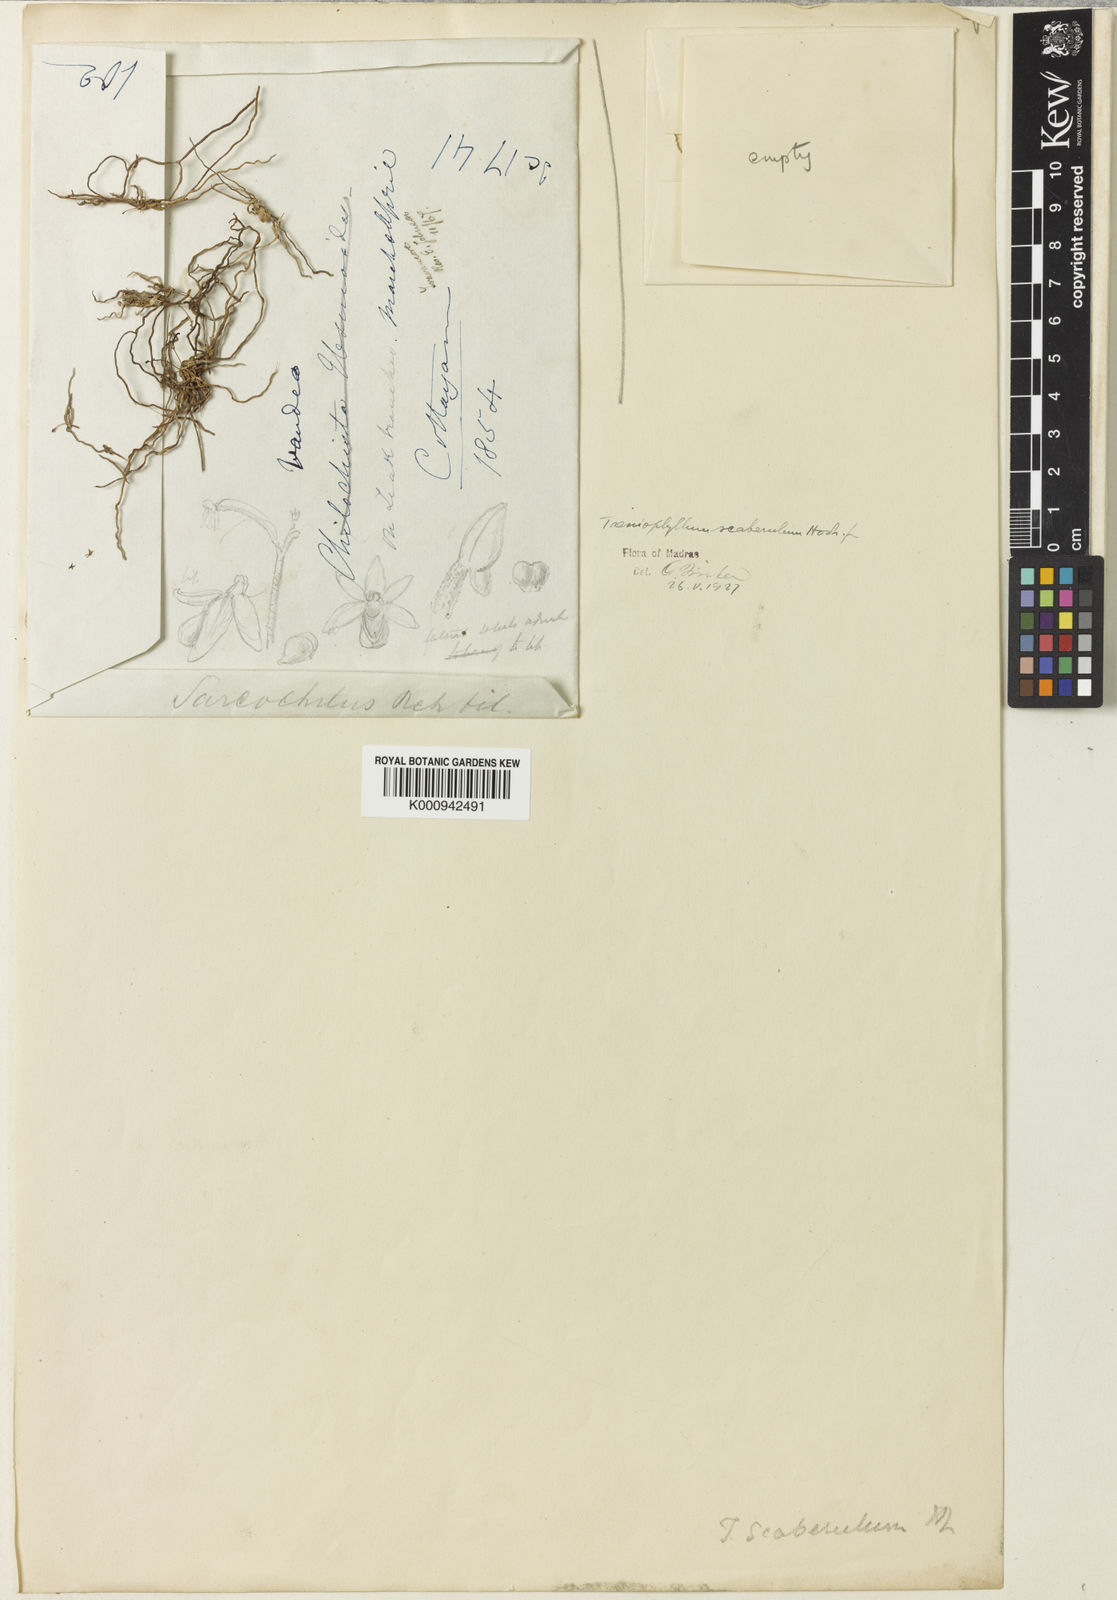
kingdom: Plantae
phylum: Tracheophyta
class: Liliopsida
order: Asparagales
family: Orchidaceae
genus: Taeniophyllum
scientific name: Taeniophyllum scaberulum
